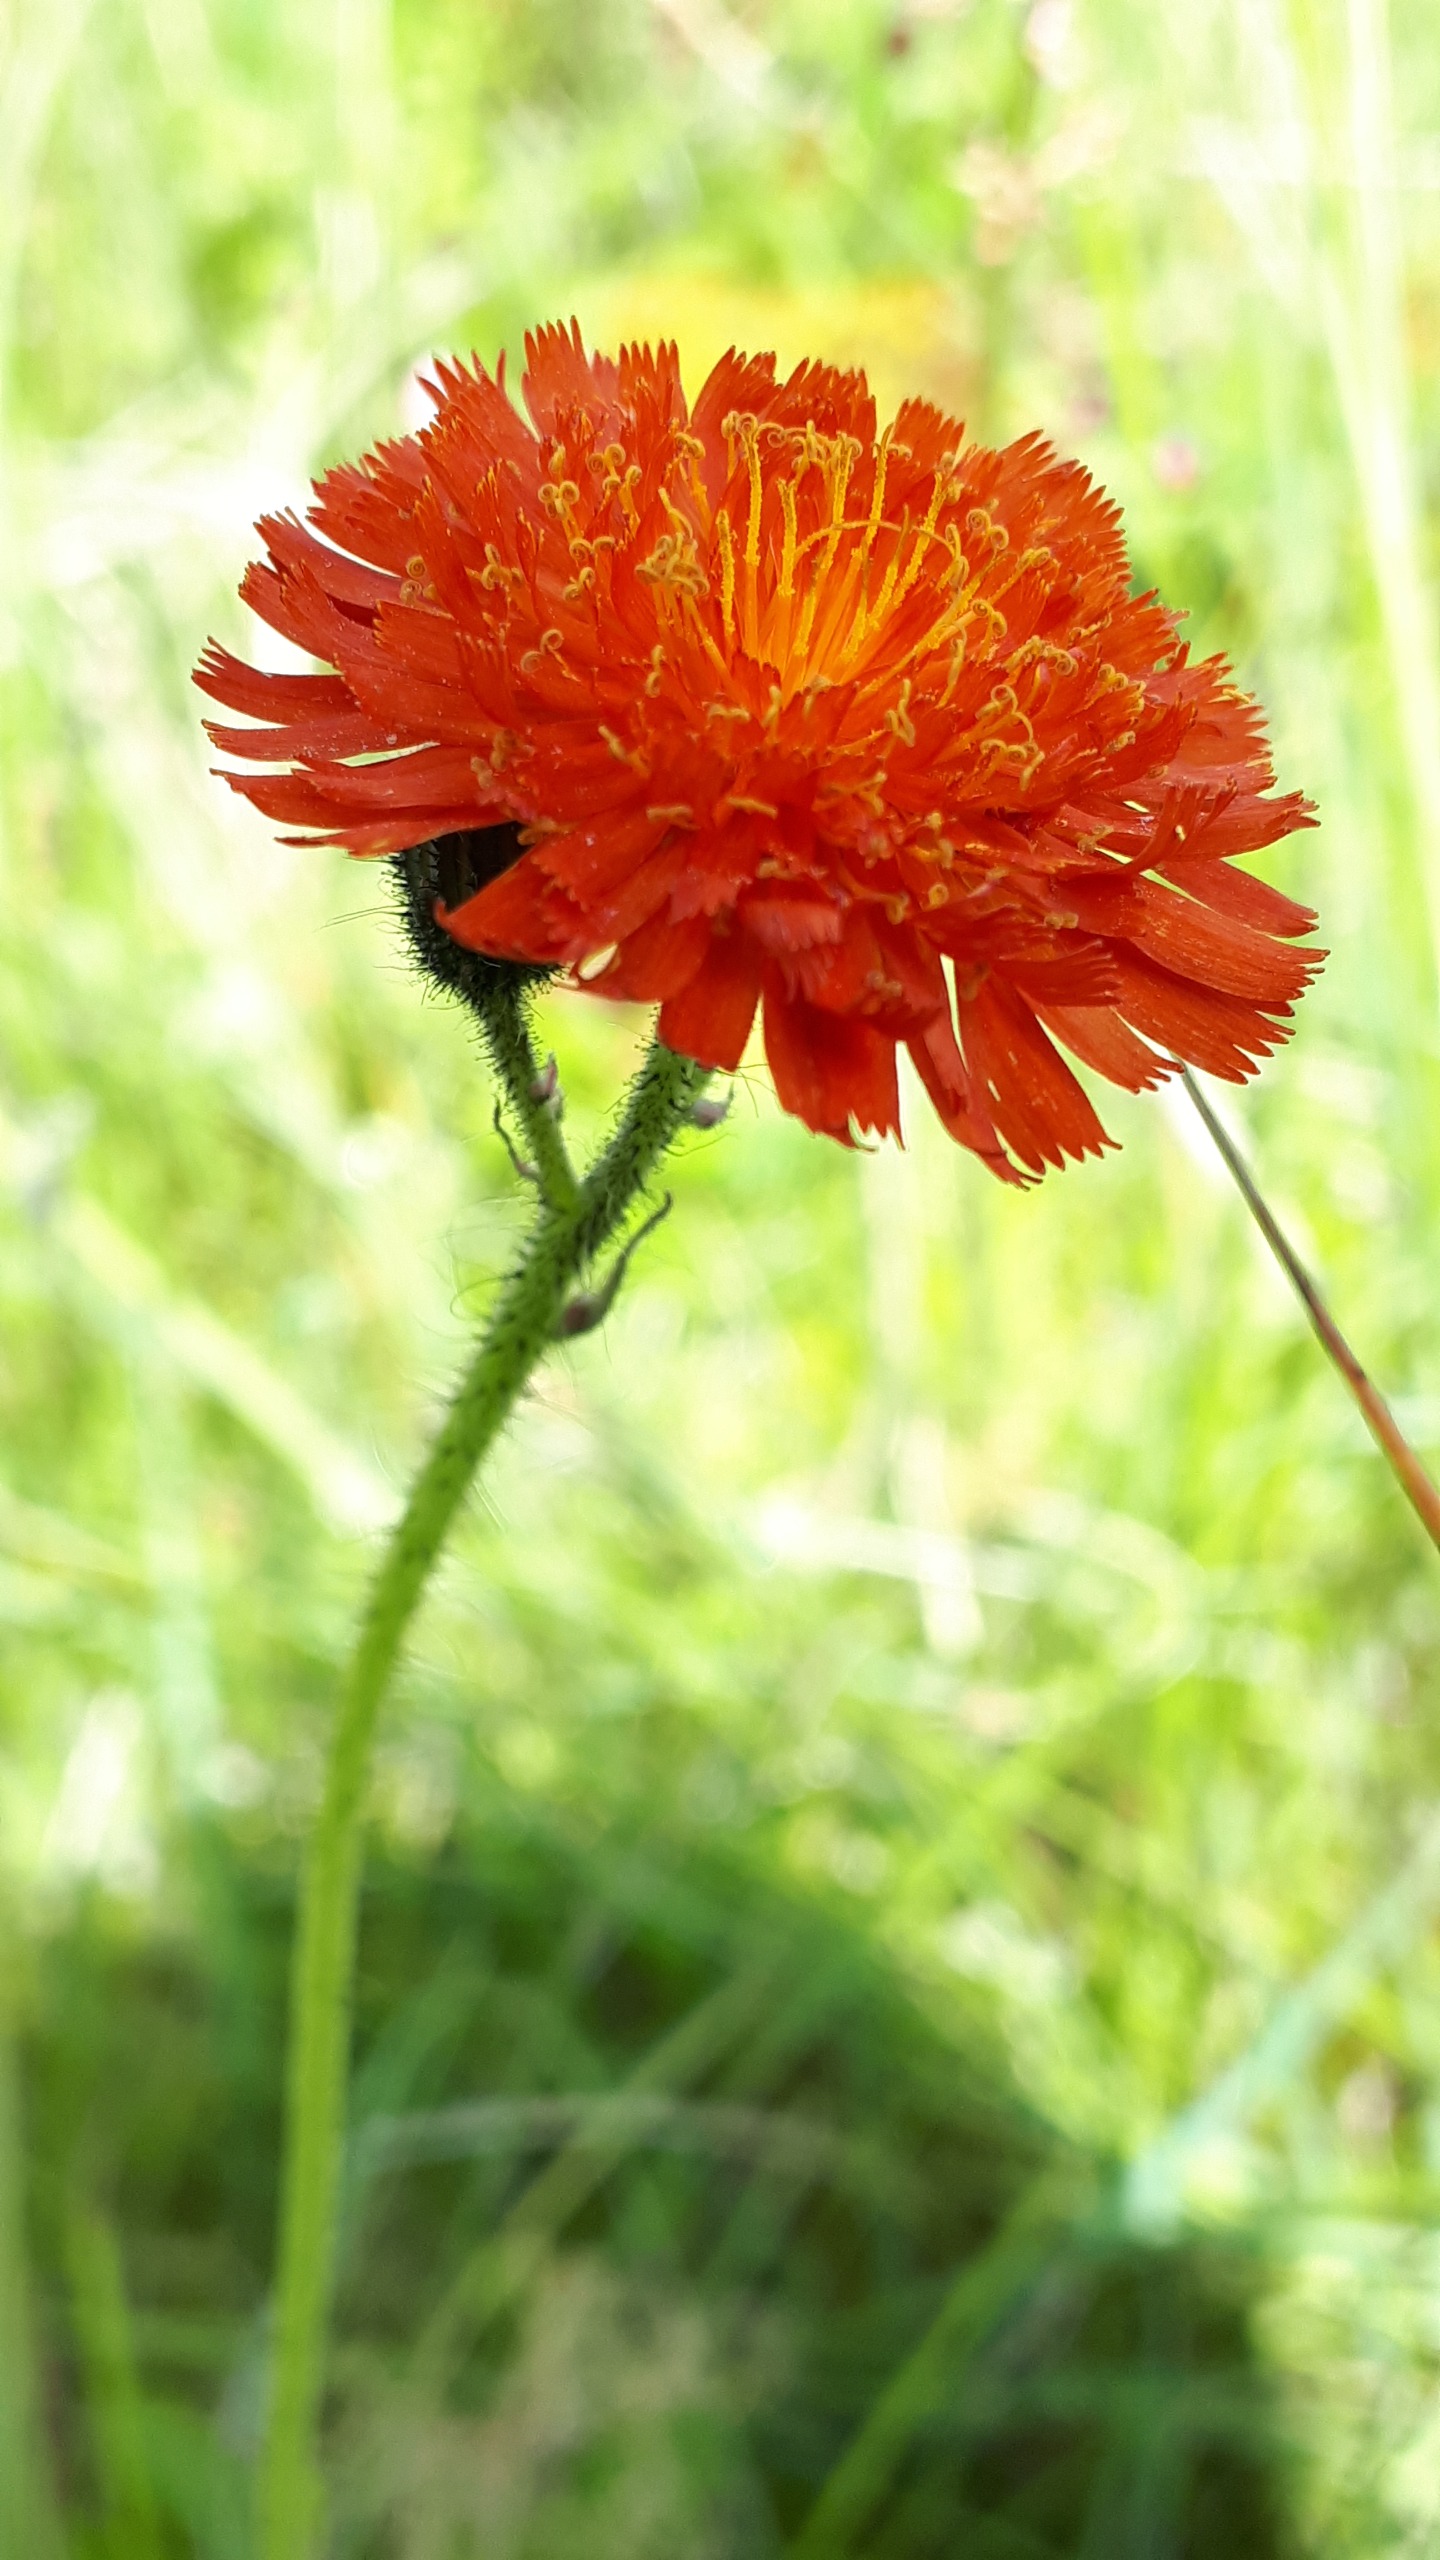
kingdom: Plantae
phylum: Tracheophyta
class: Magnoliopsida
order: Asterales
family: Asteraceae
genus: Pilosella
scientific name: Pilosella aurantiaca
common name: Pomerans-høgeurt
